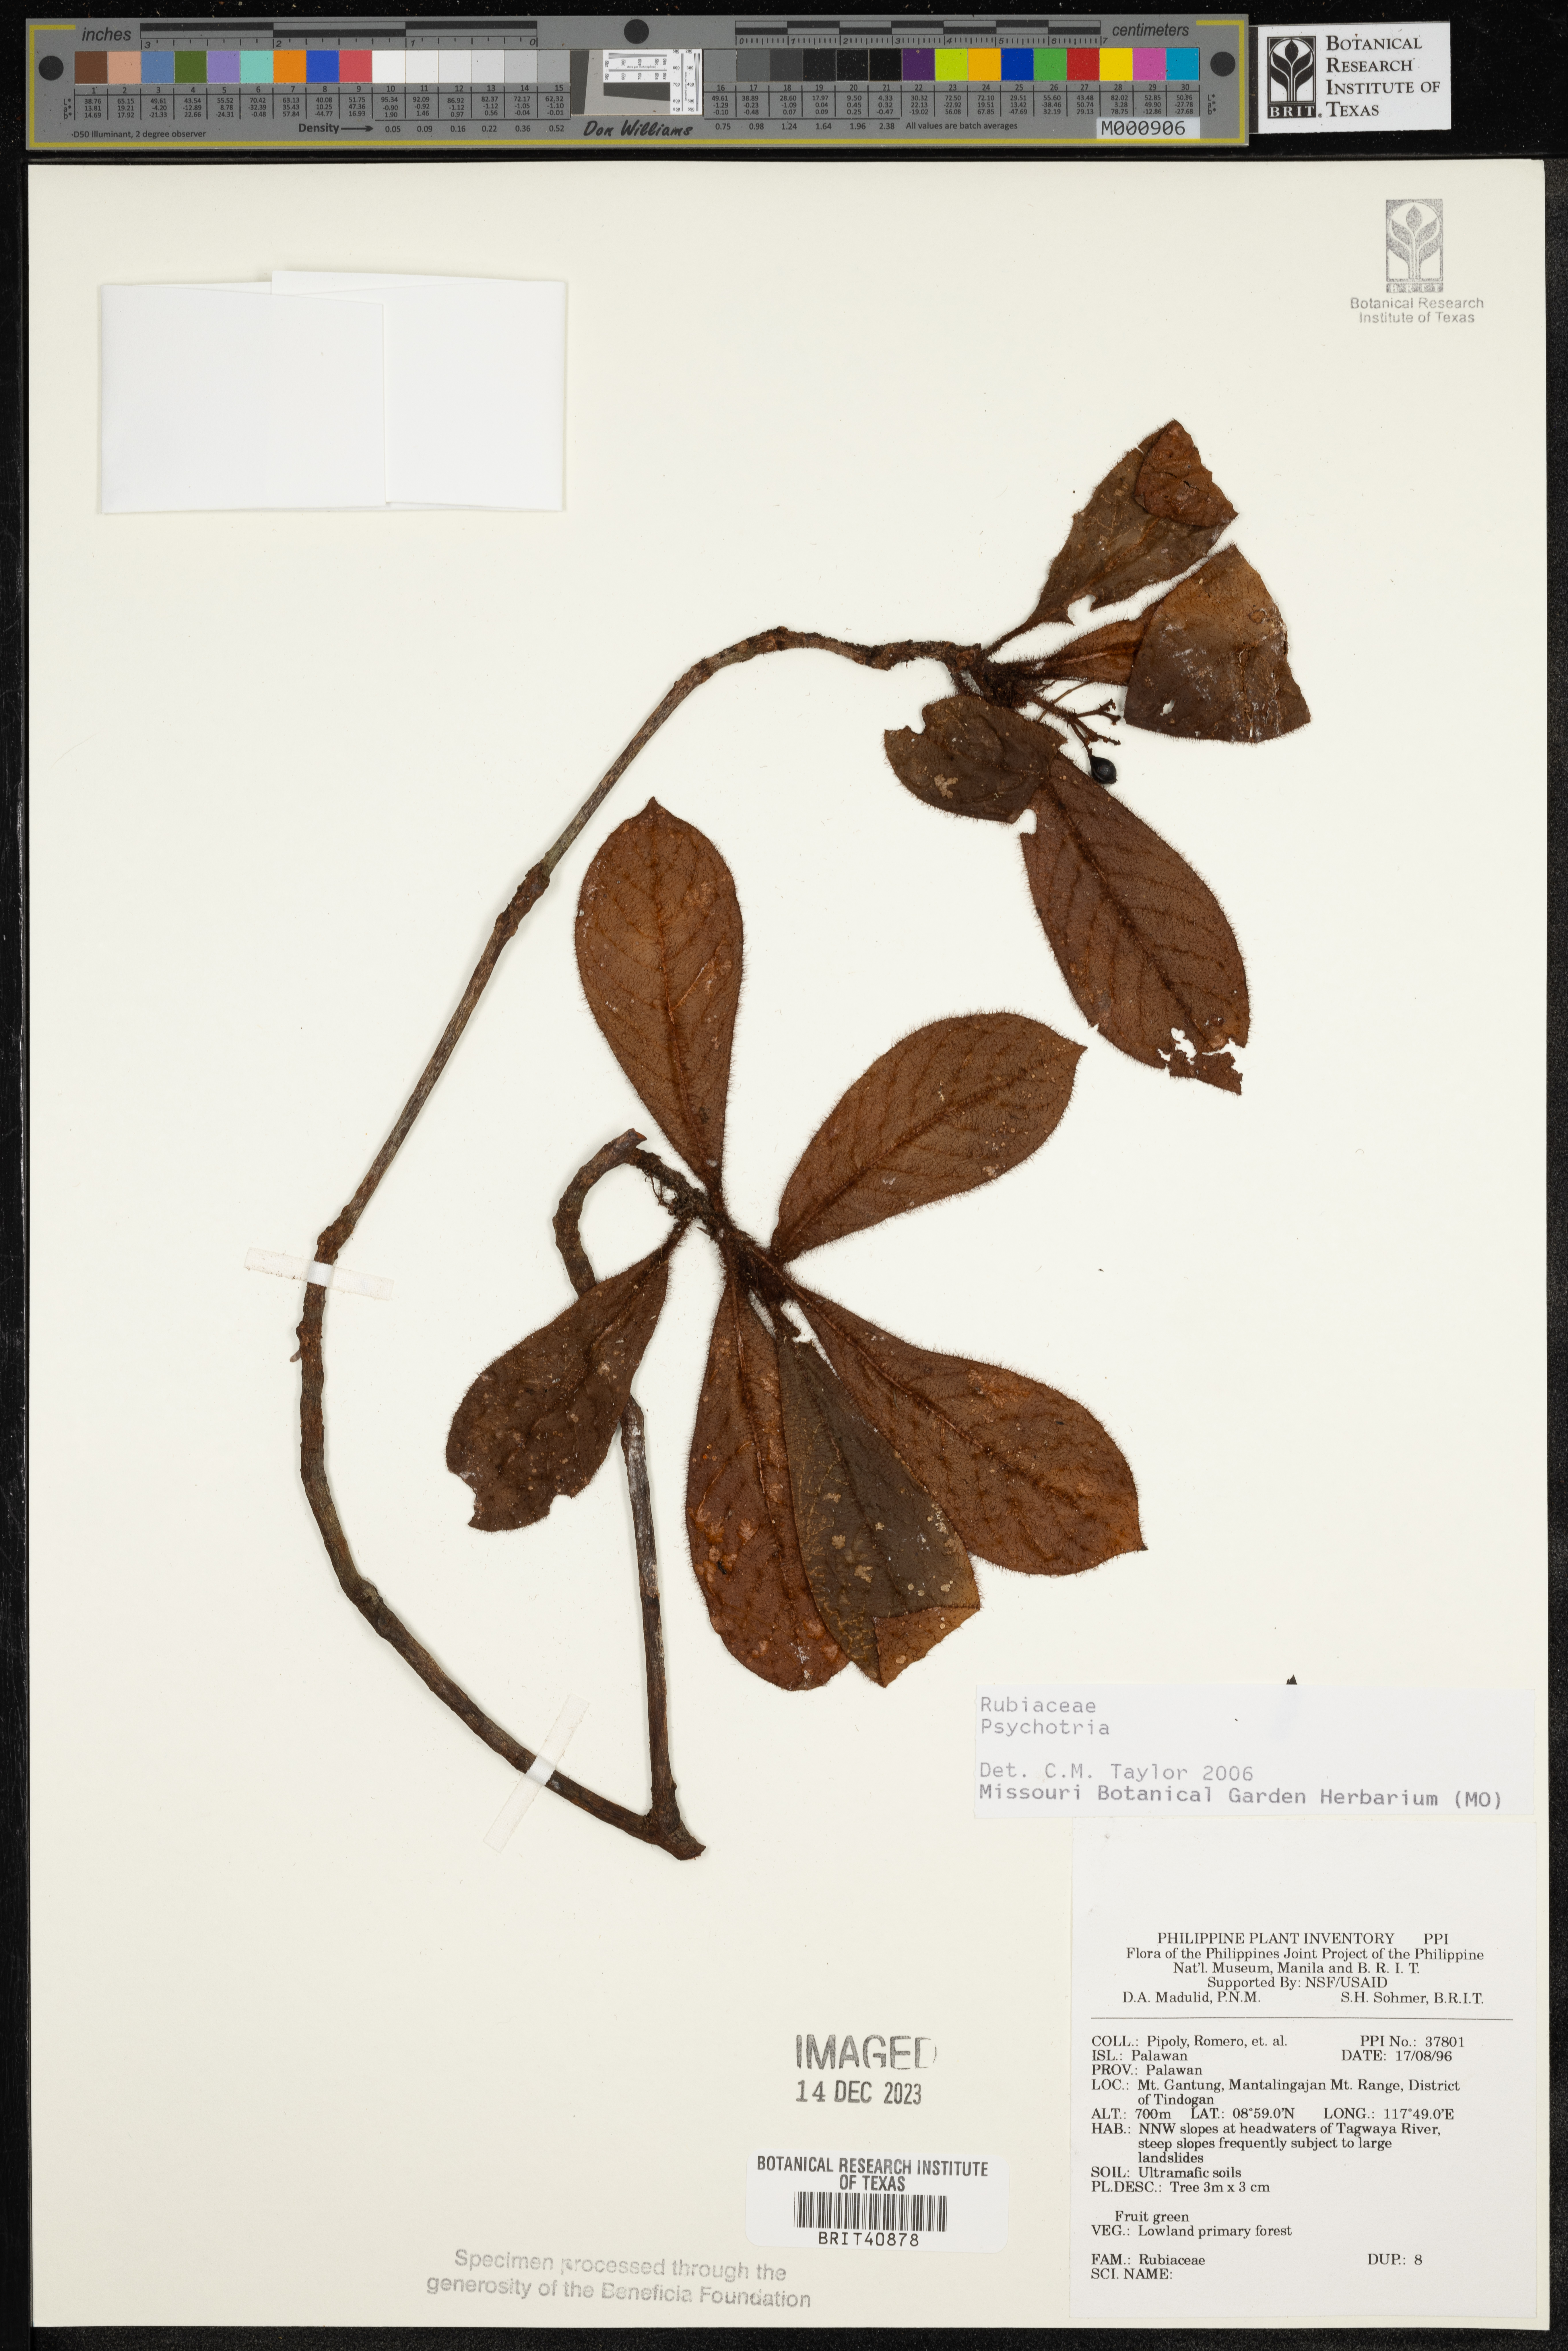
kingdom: Plantae
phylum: Tracheophyta
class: Magnoliopsida
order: Gentianales
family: Rubiaceae
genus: Psychotria
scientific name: Psychotria
